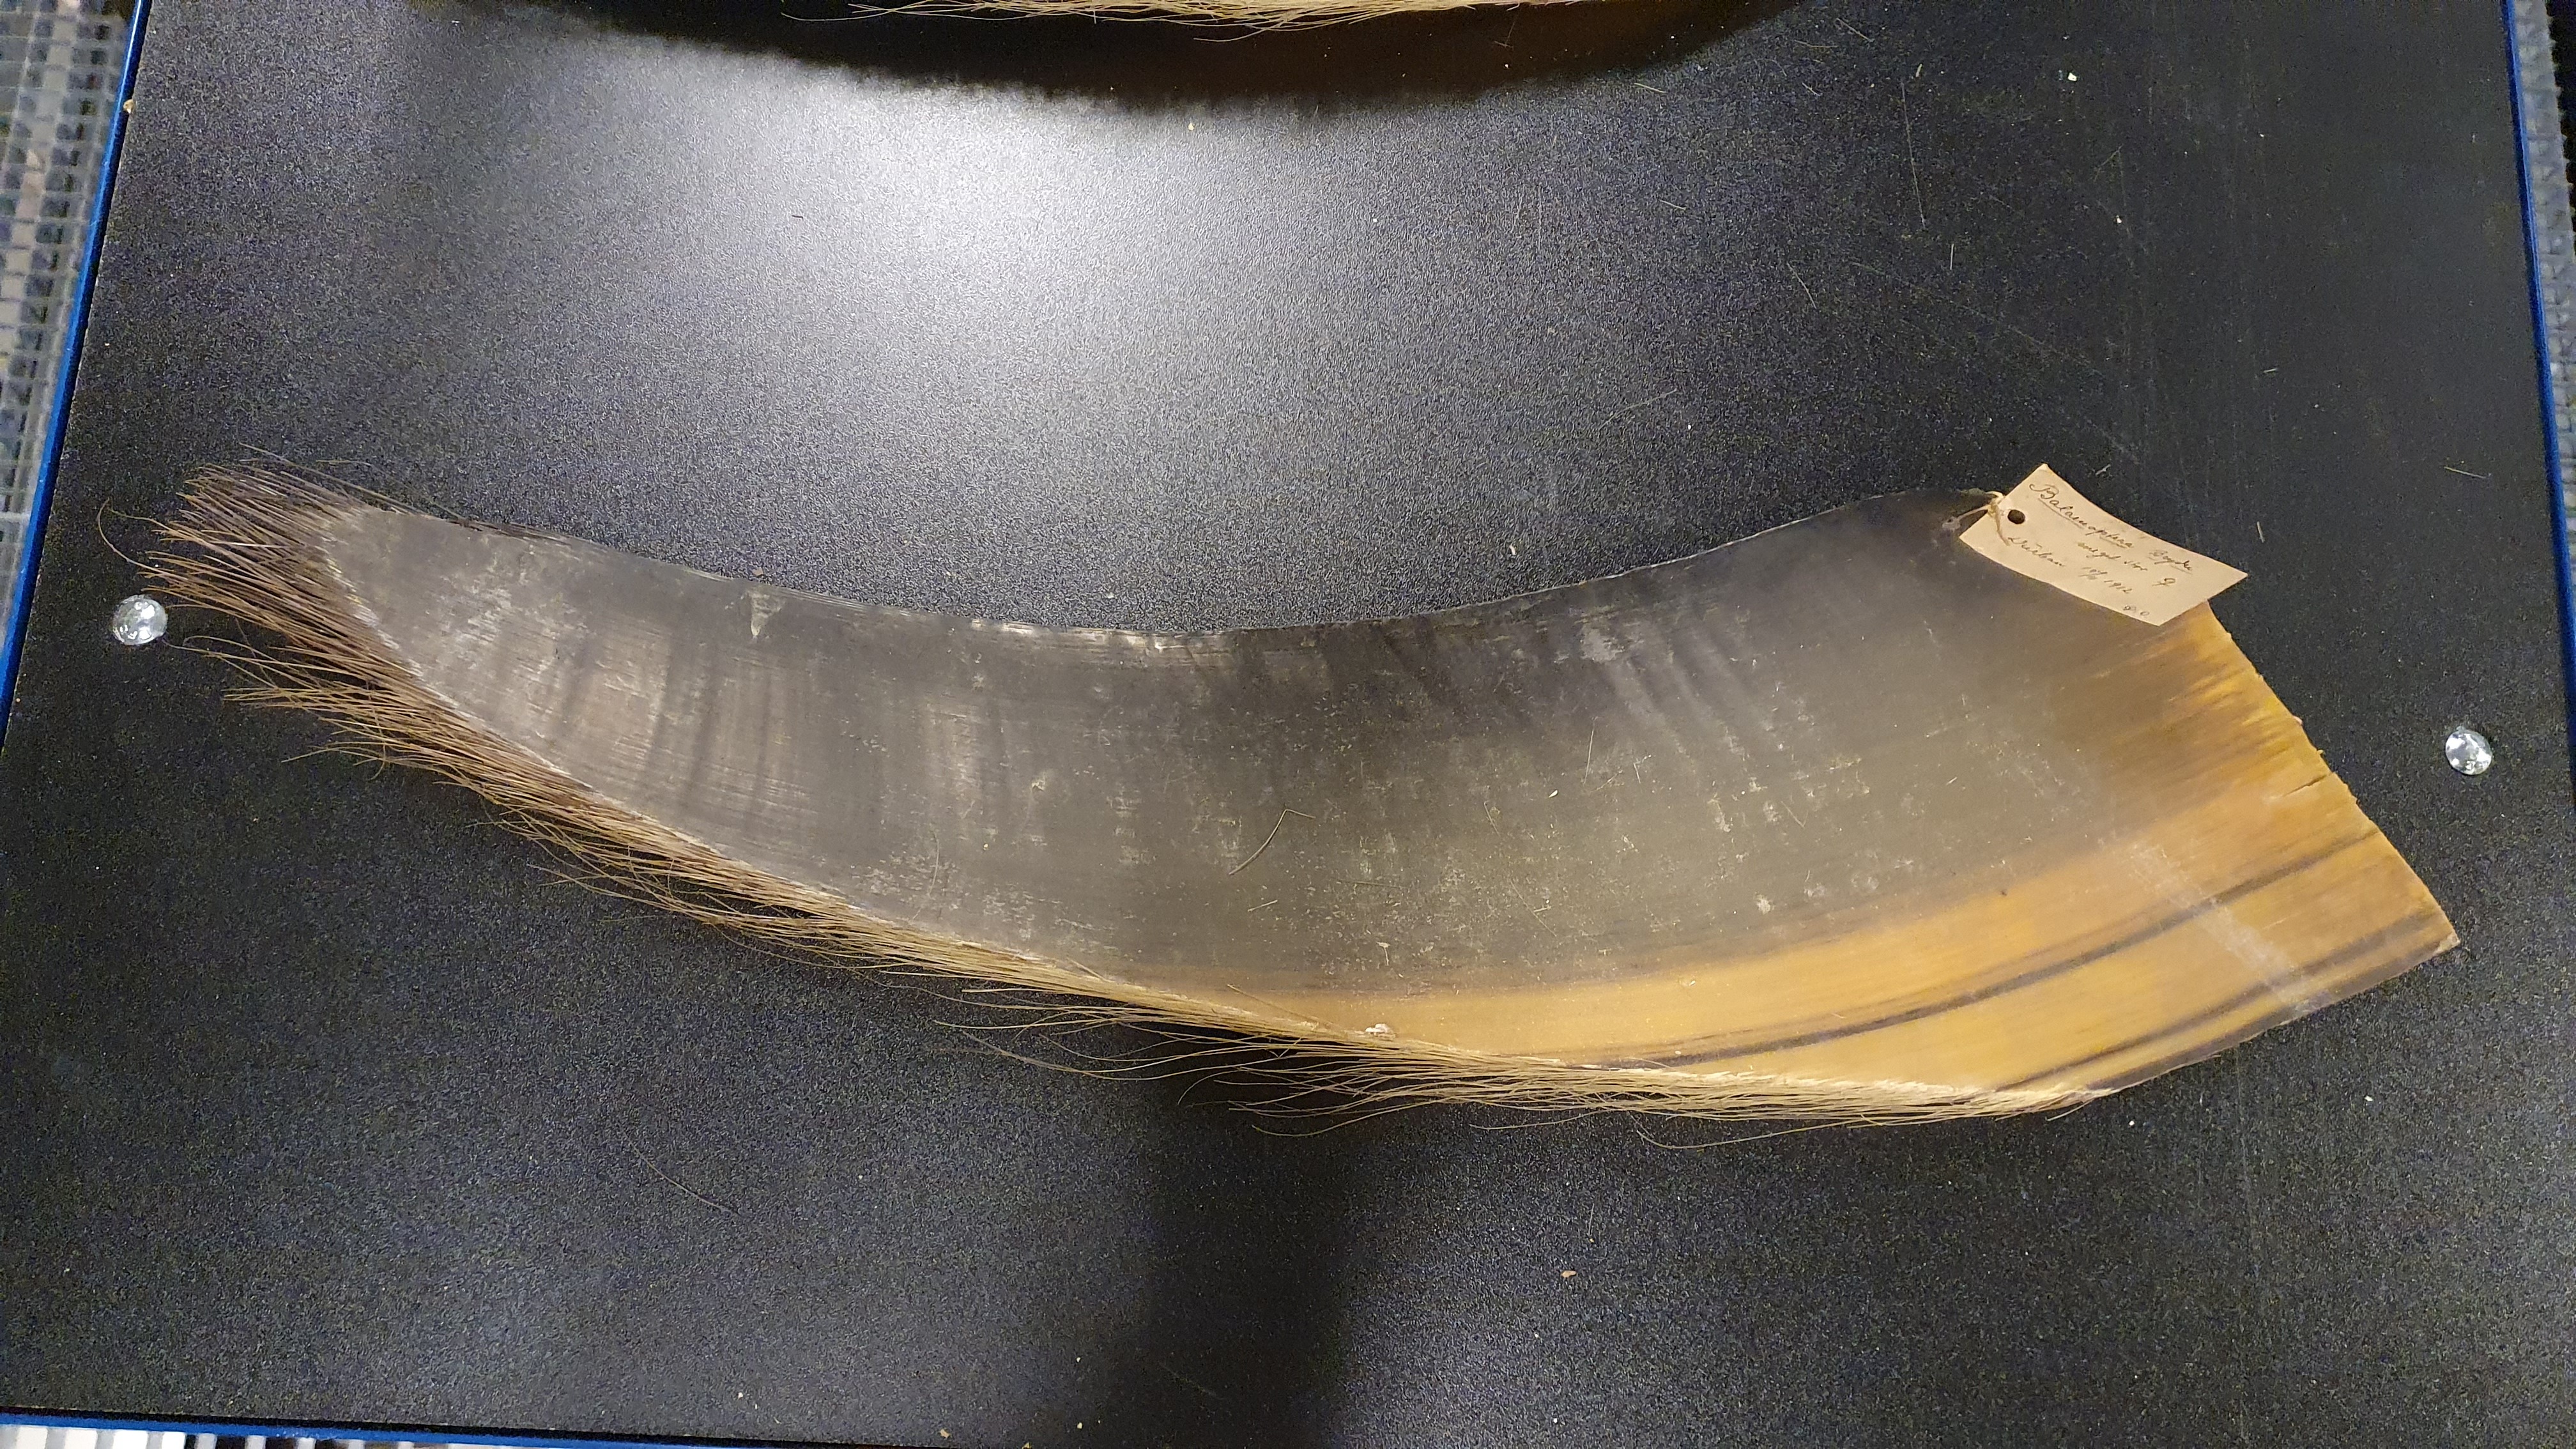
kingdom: Animalia
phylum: Chordata
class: Mammalia
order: Cetacea
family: Balaenopteridae
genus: Balaenoptera
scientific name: Balaenoptera edeni
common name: Bryde's whale
